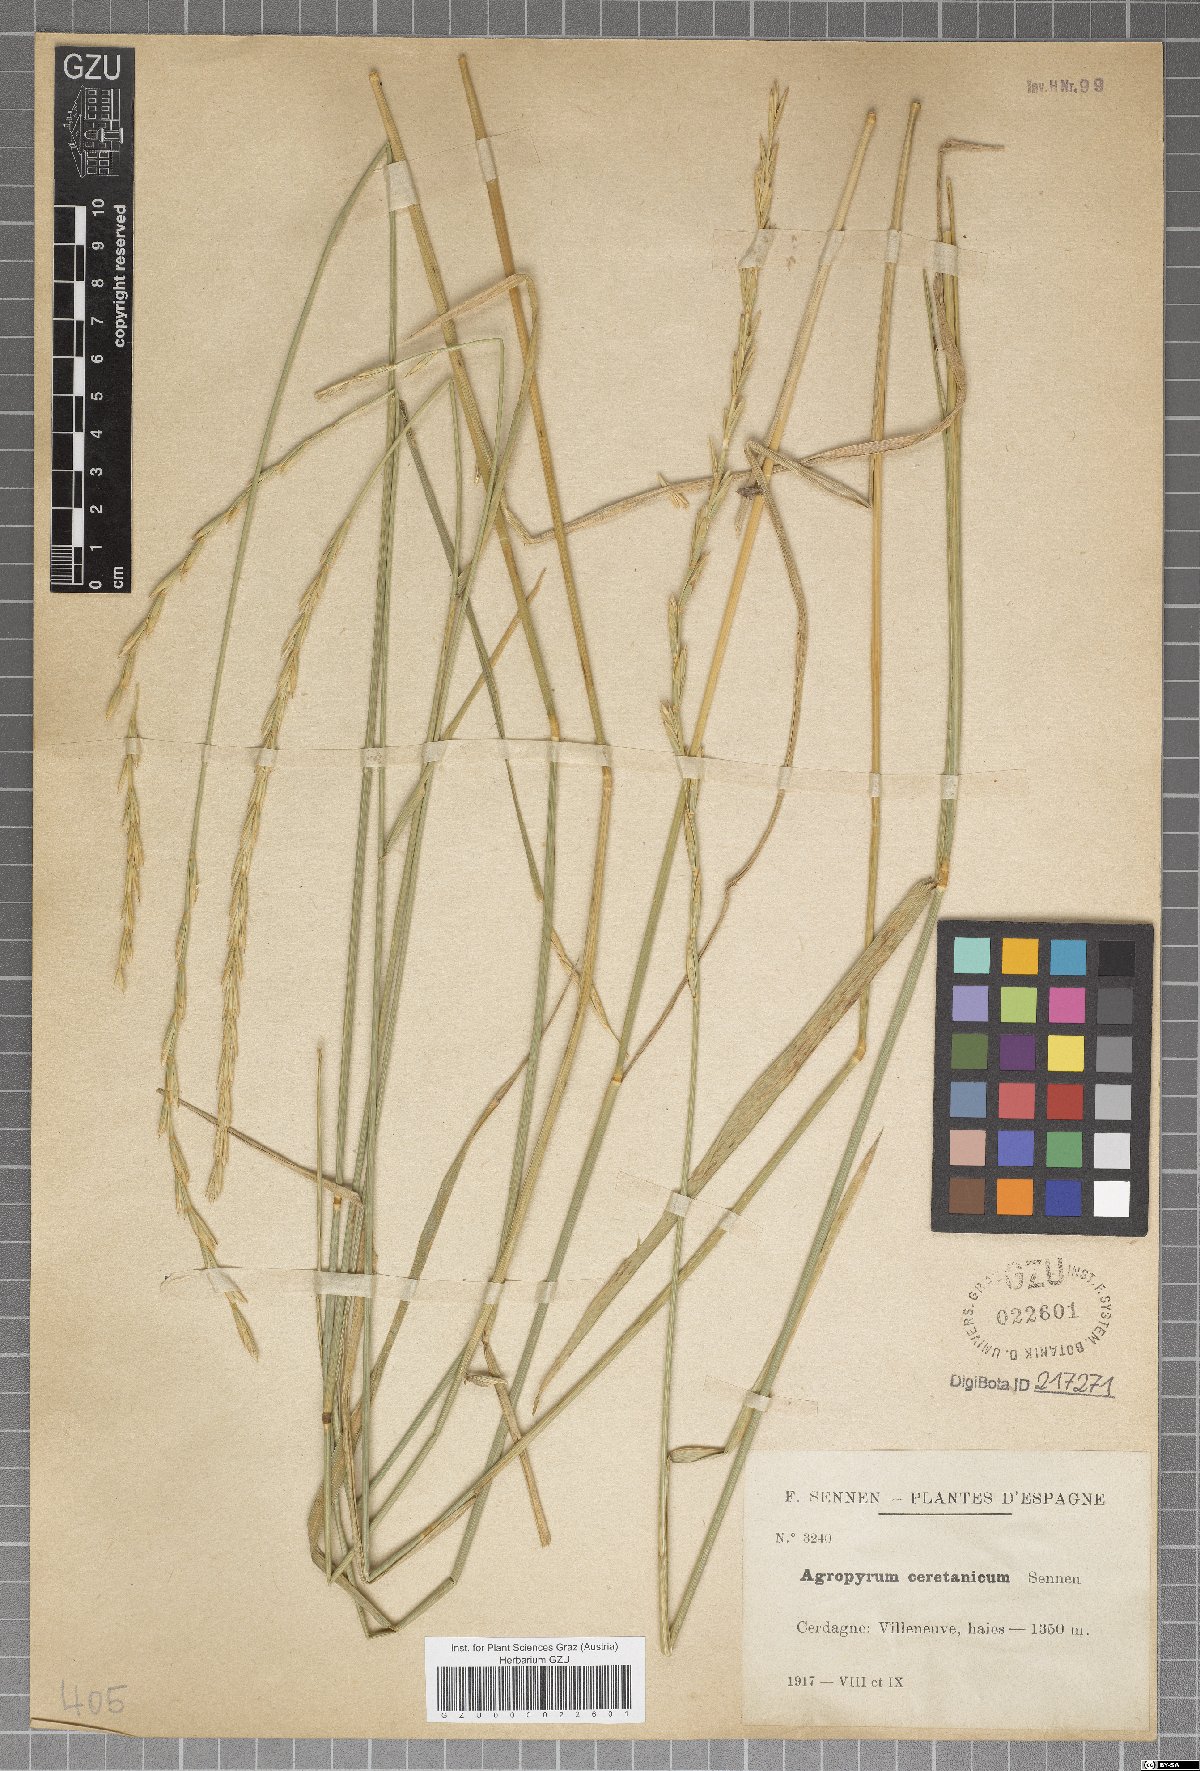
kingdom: Plantae
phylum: Tracheophyta
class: Liliopsida
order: Poales
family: Poaceae
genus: Thinopyrum
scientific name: Thinopyrum intermedium
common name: Intermediate wheatgrass
